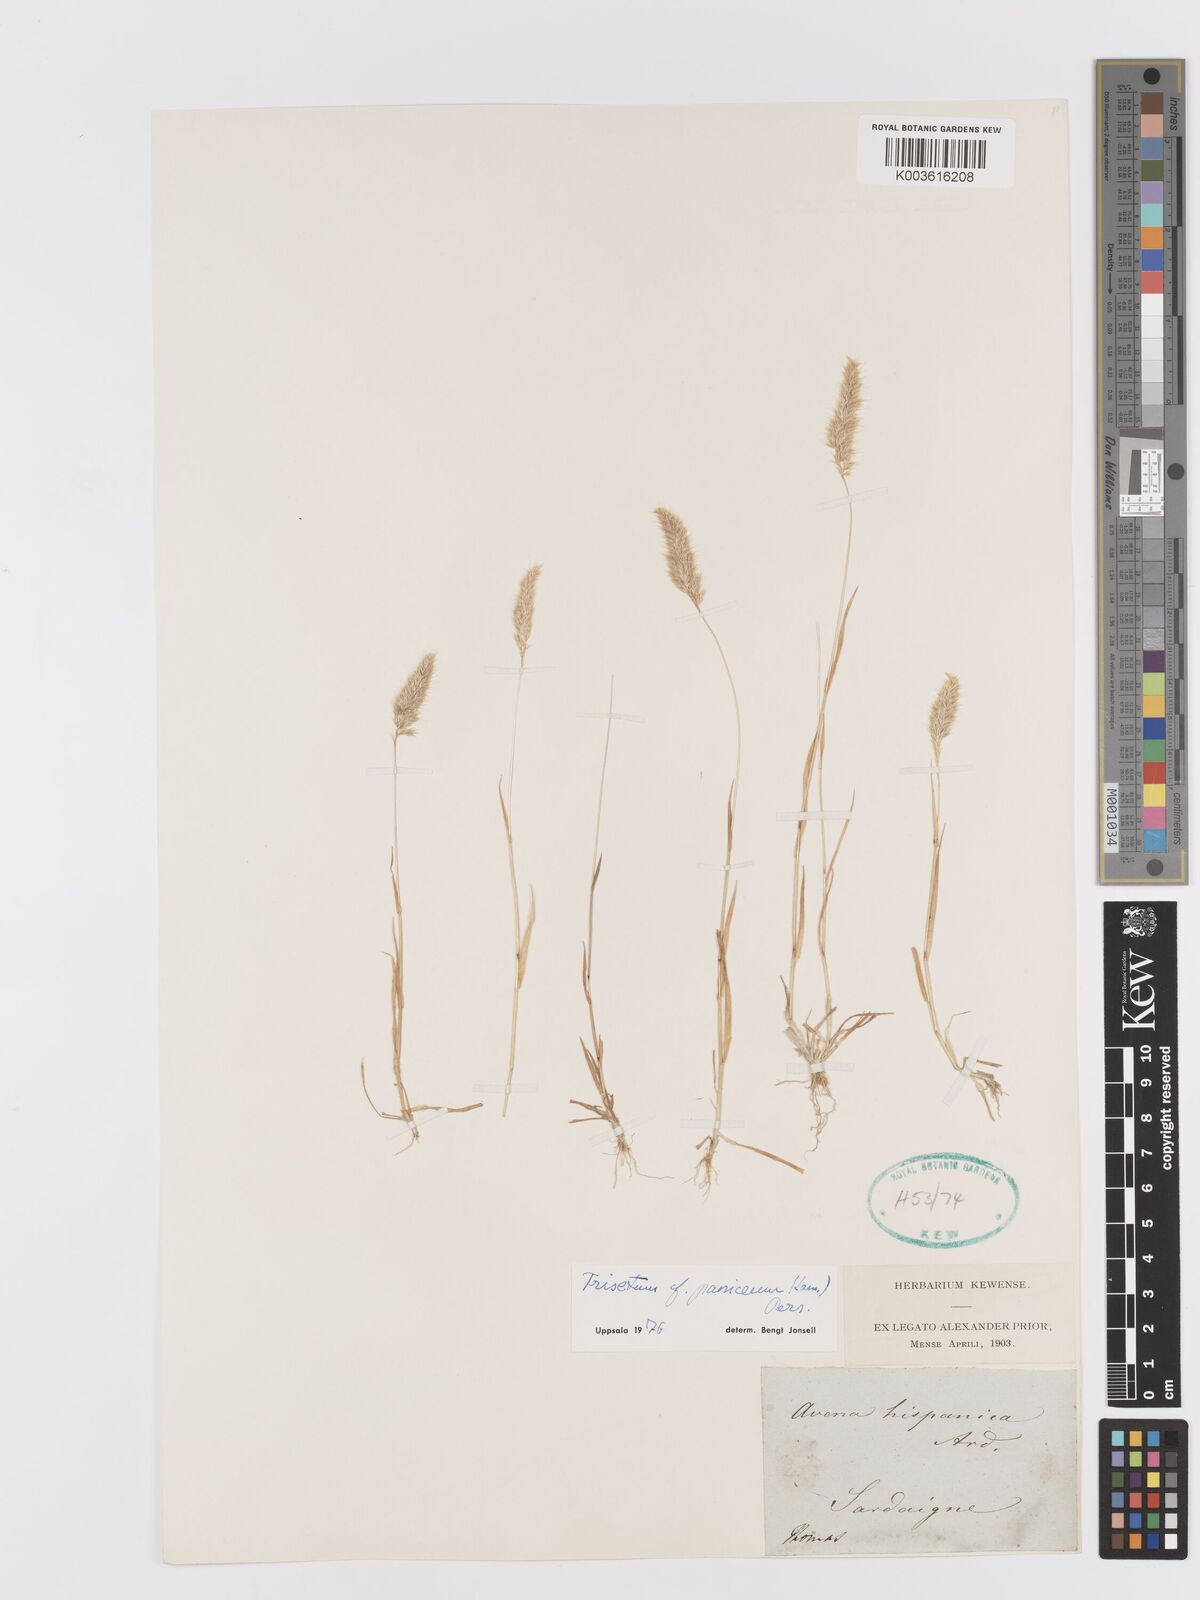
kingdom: Plantae
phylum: Tracheophyta
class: Liliopsida
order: Poales
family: Poaceae
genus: Trisetaria
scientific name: Trisetaria
